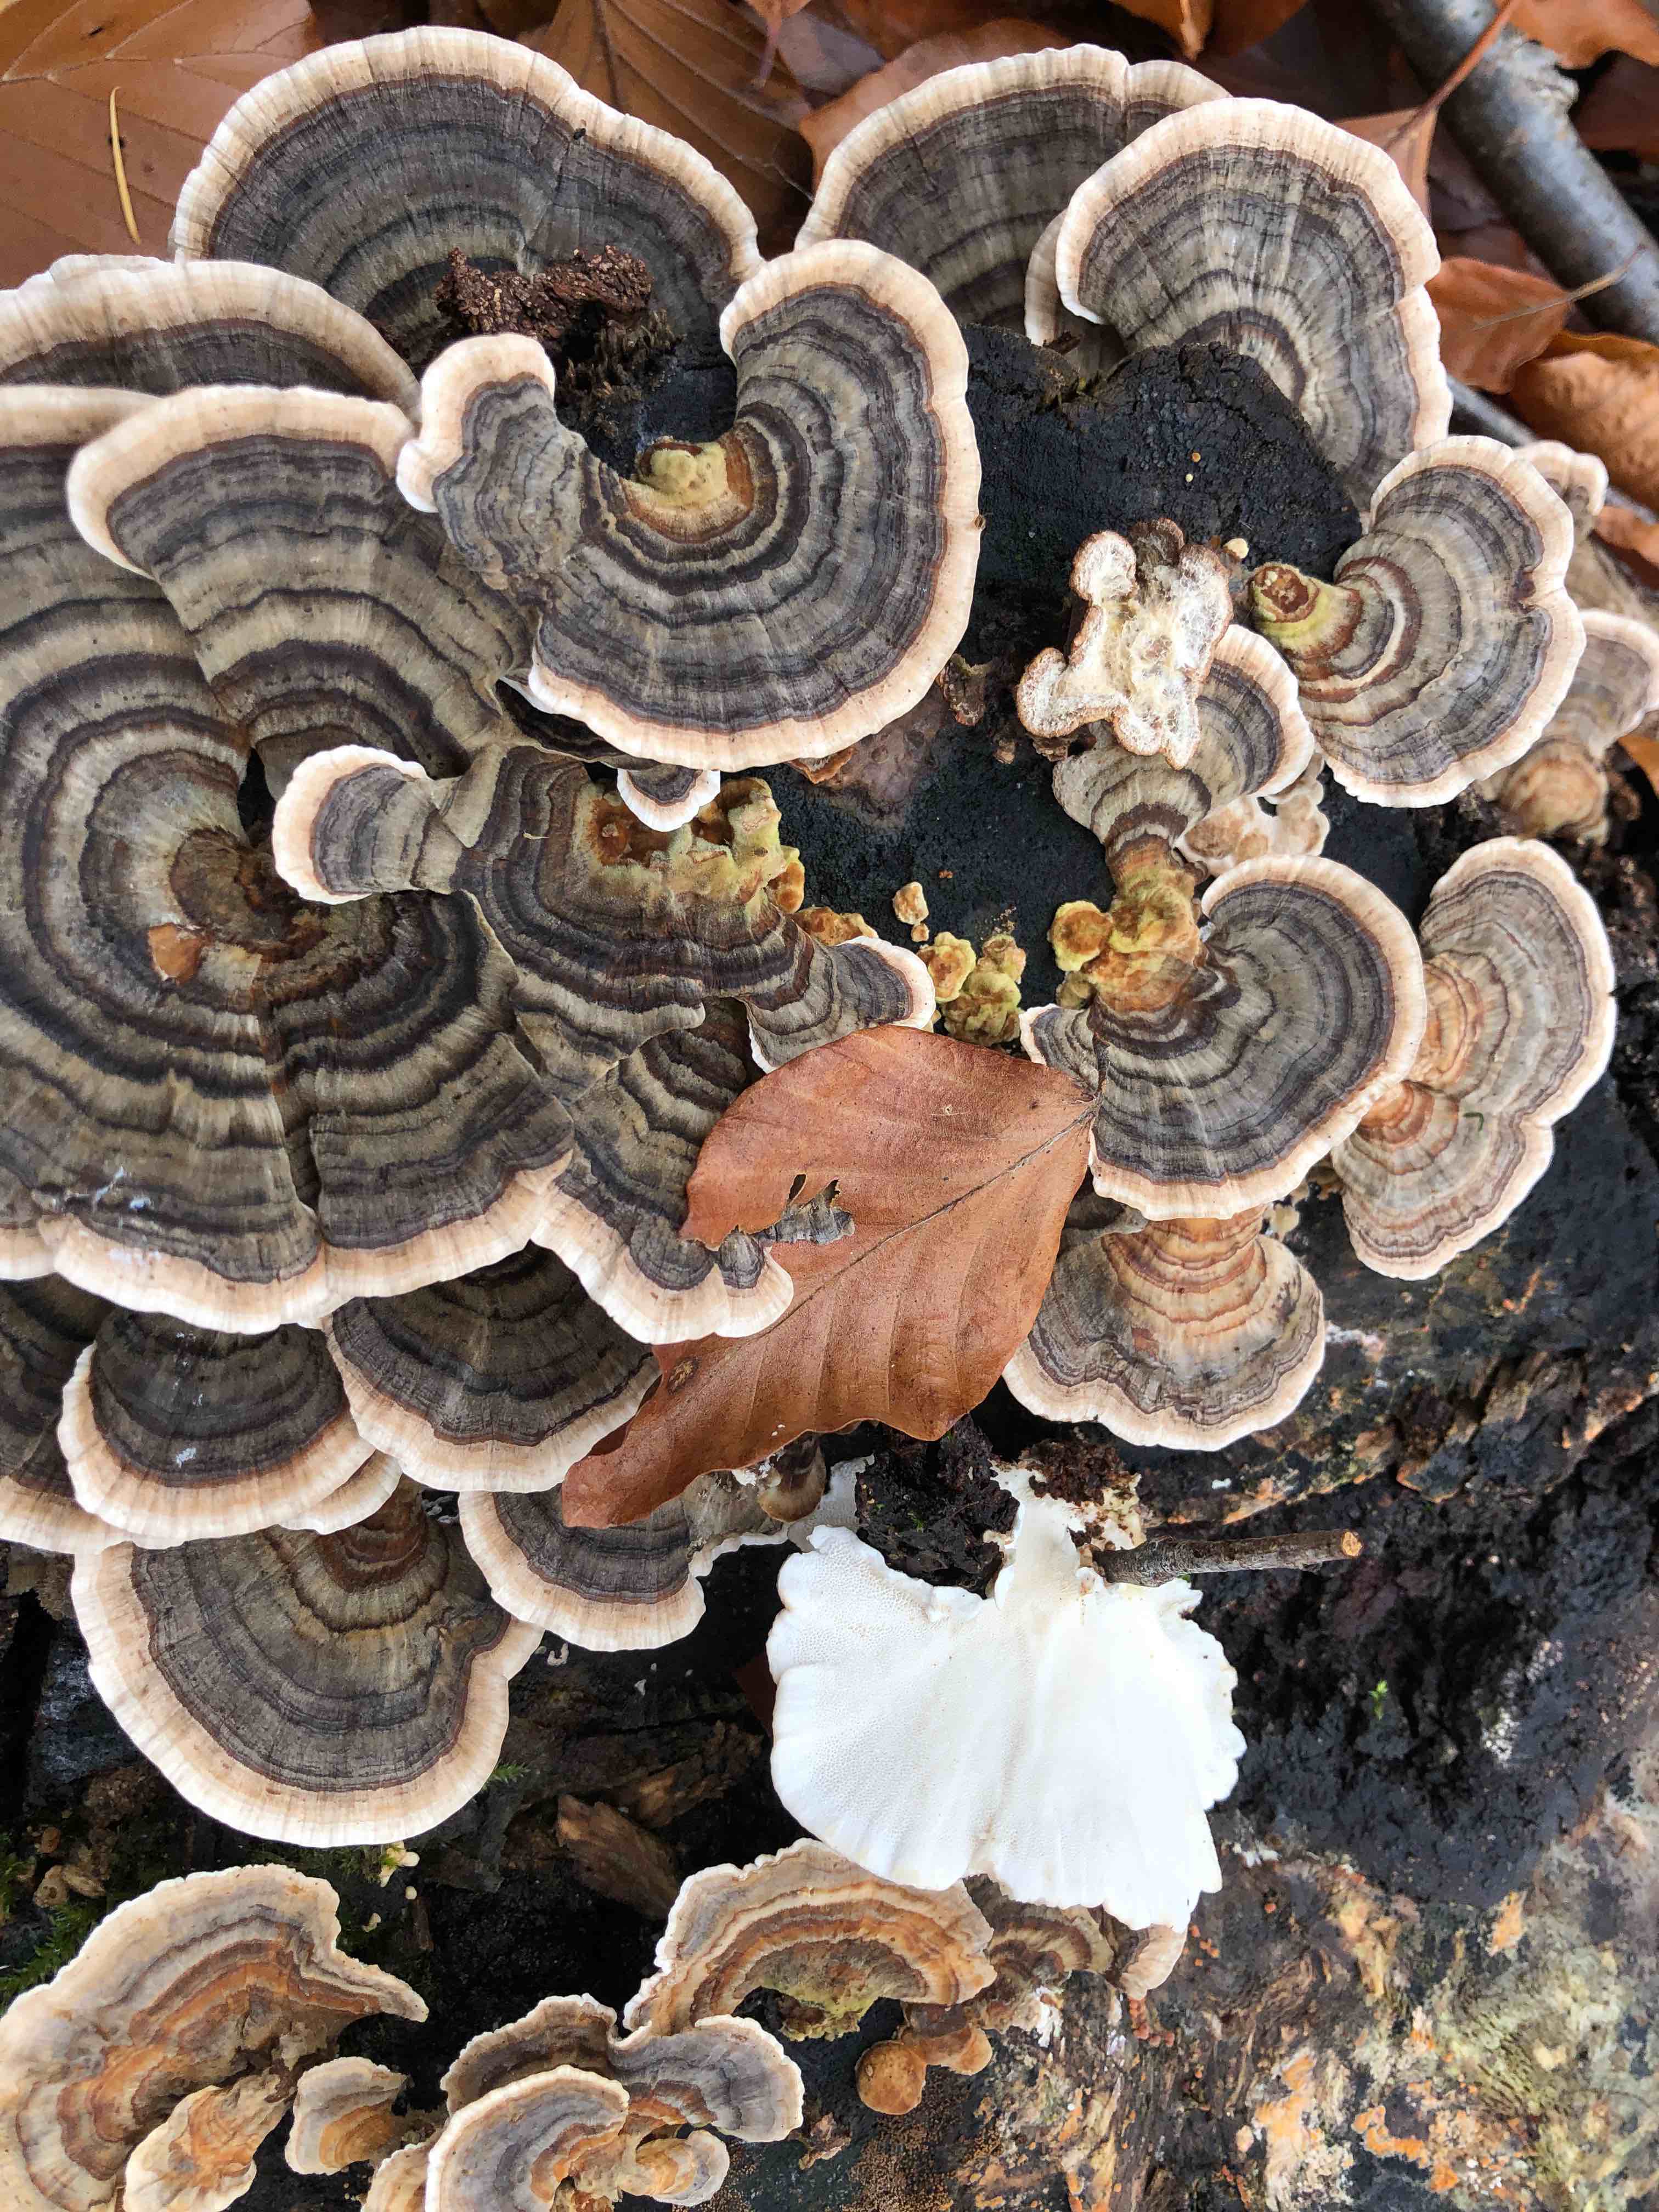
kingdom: Fungi
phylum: Basidiomycota
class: Agaricomycetes
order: Polyporales
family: Polyporaceae
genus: Trametes
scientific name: Trametes versicolor
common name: broget læderporesvamp
